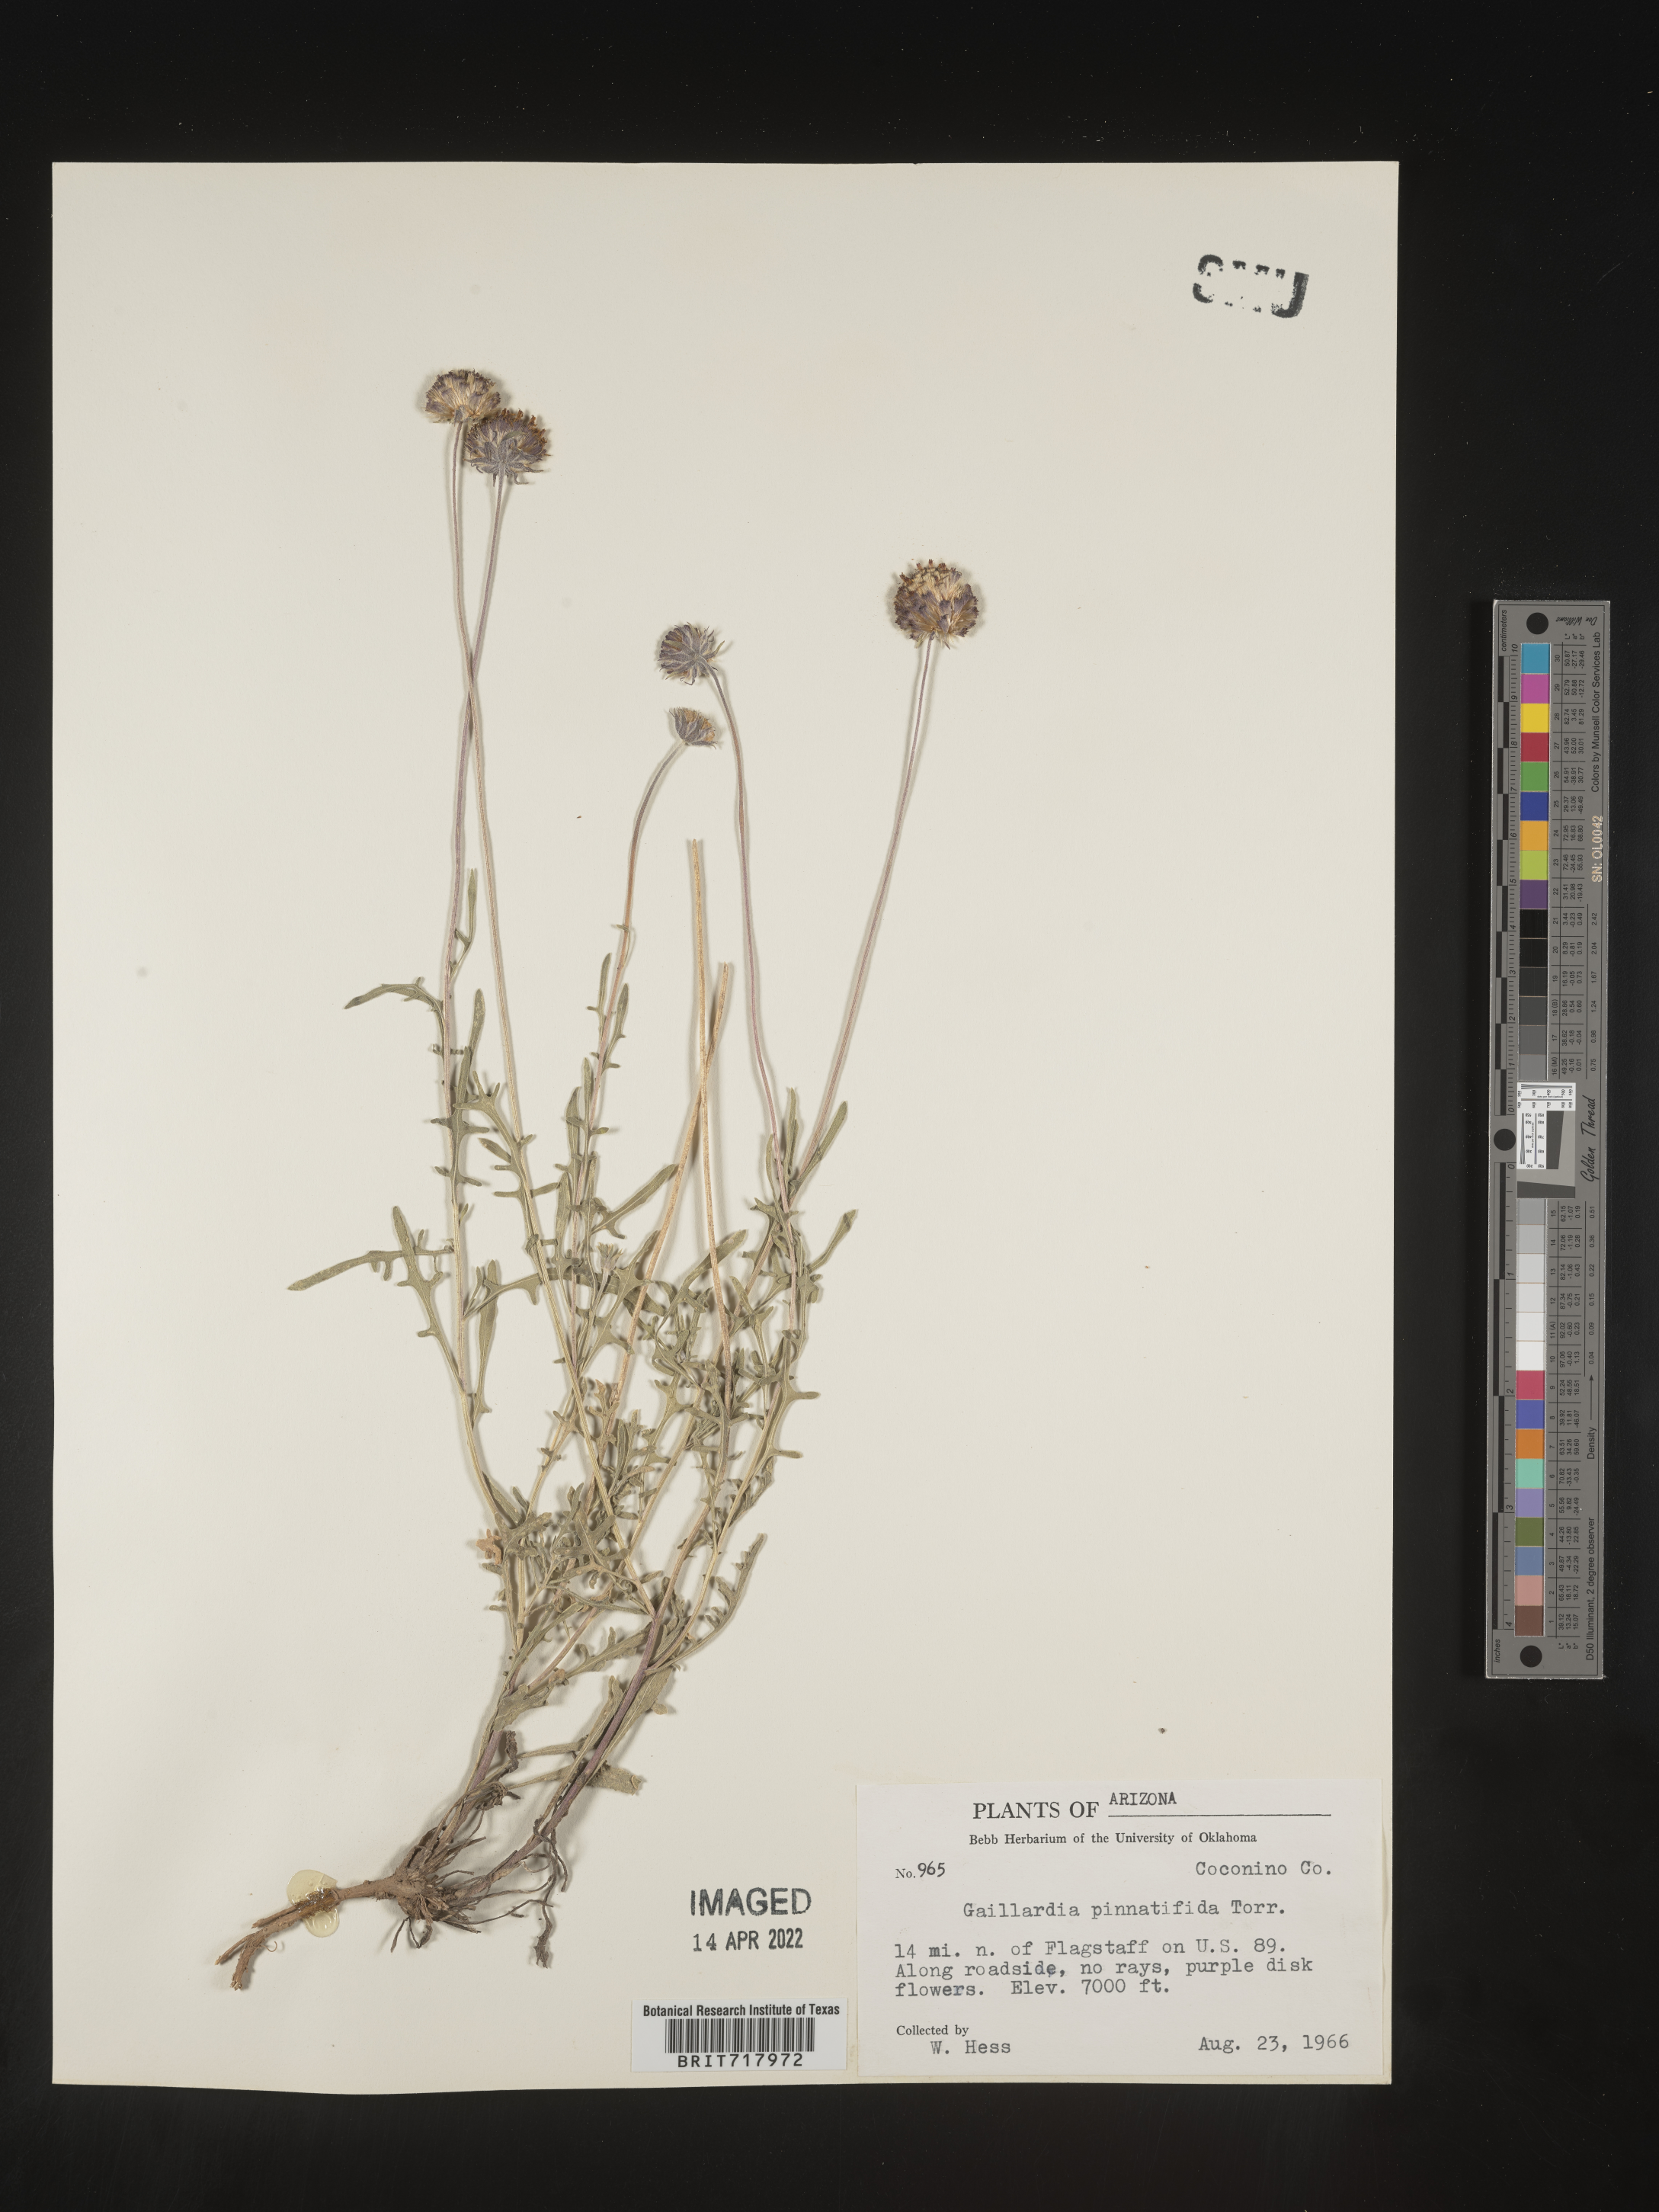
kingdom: Plantae
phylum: Tracheophyta
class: Magnoliopsida
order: Asterales
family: Asteraceae
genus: Gaillardia
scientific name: Gaillardia pinnatifida
